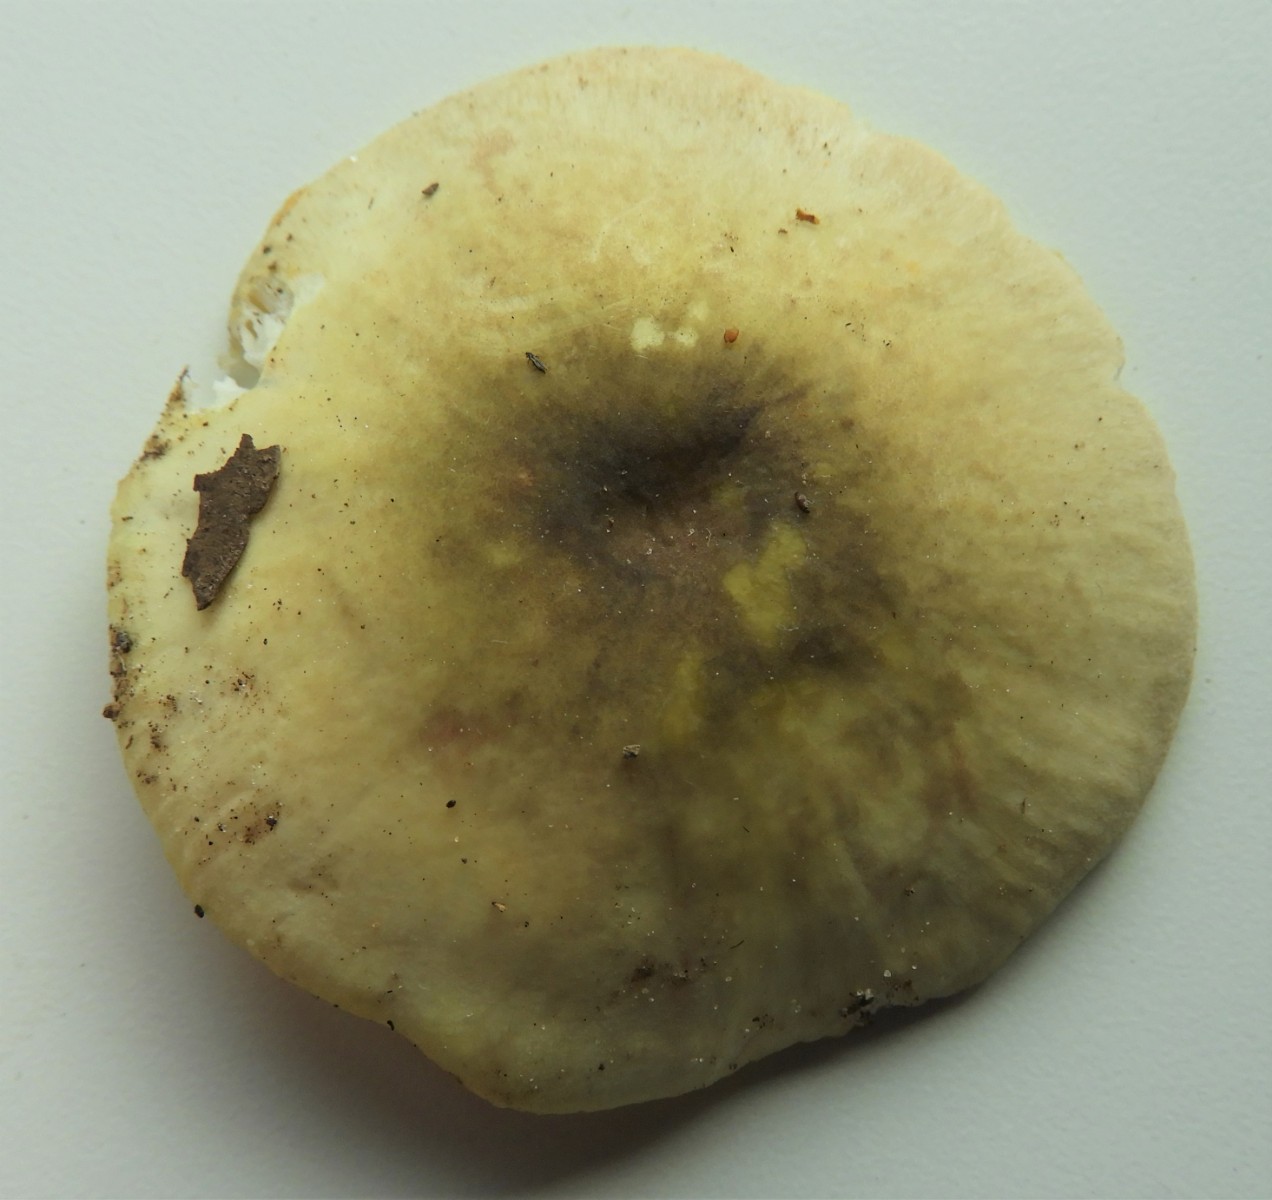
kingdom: Fungi
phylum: Basidiomycota
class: Agaricomycetes
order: Russulales
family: Russulaceae
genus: Russula
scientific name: Russula violeipes
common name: ferskengul skørhat
